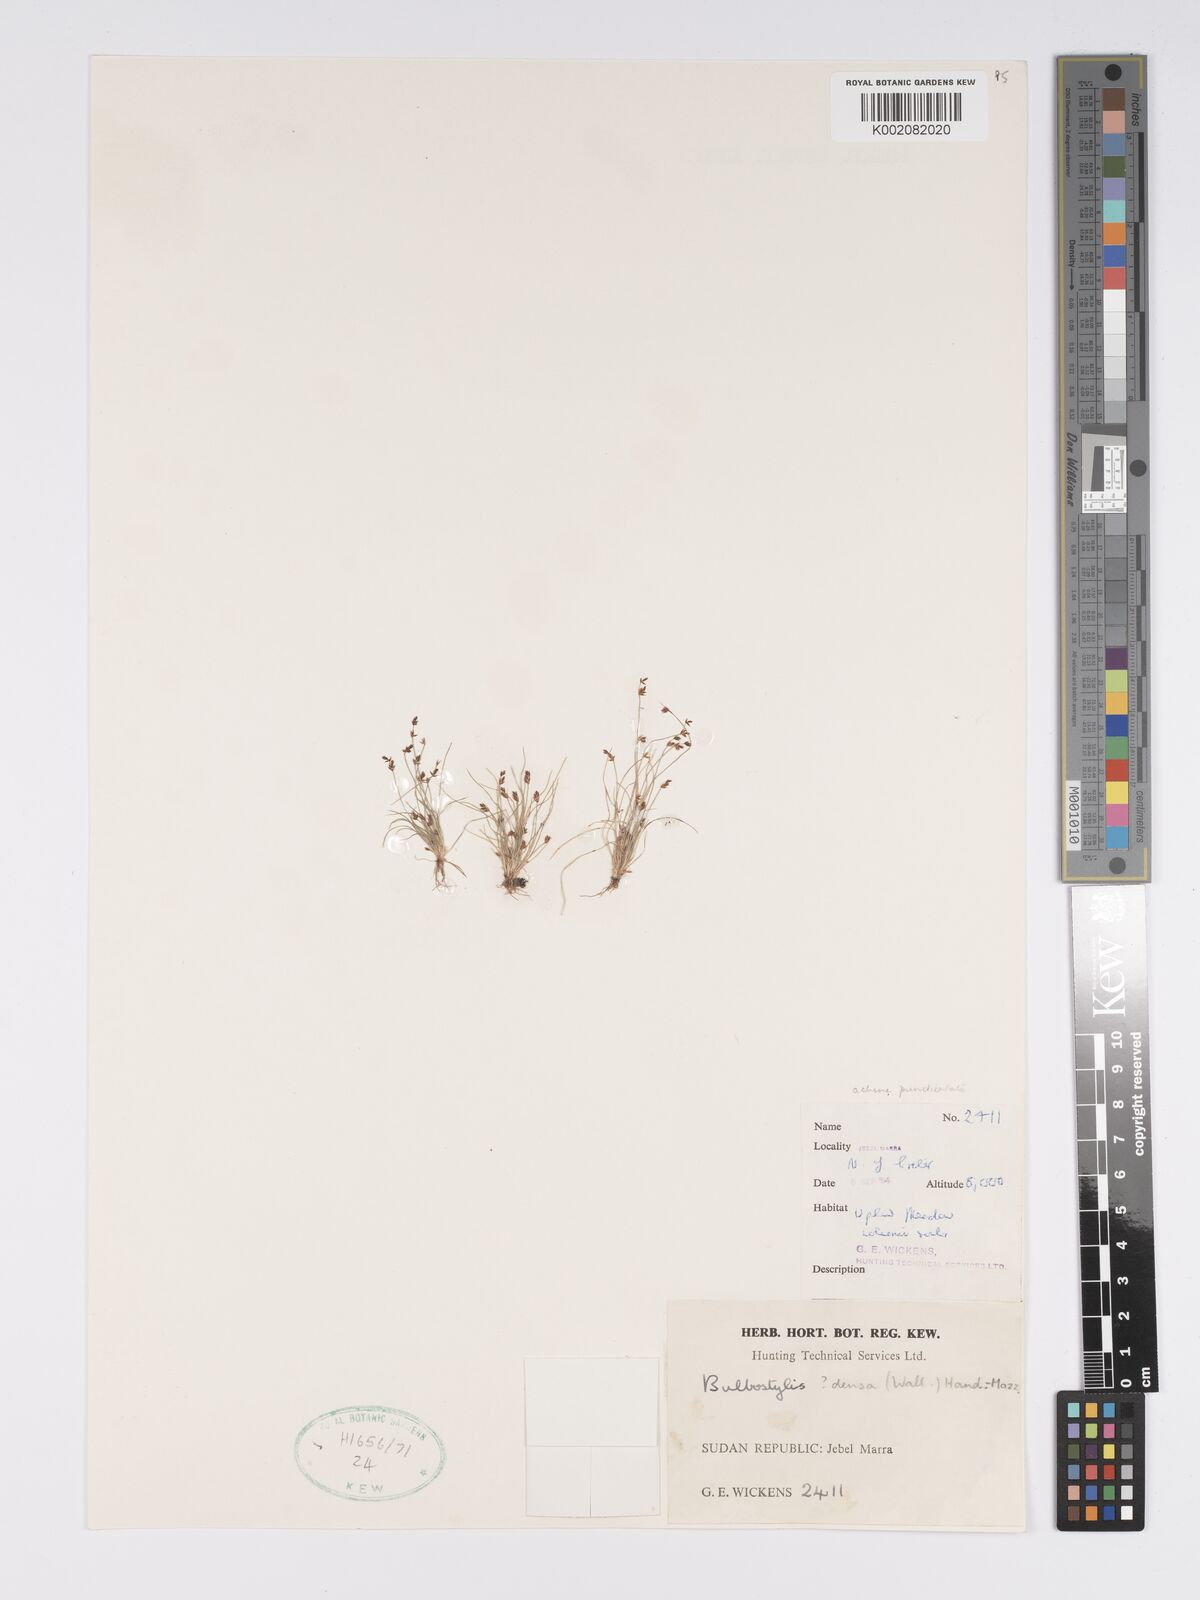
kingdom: Plantae
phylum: Tracheophyta
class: Liliopsida
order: Poales
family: Cyperaceae
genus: Bulbostylis
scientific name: Bulbostylis capillaris
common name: Densetuft hairsedge
